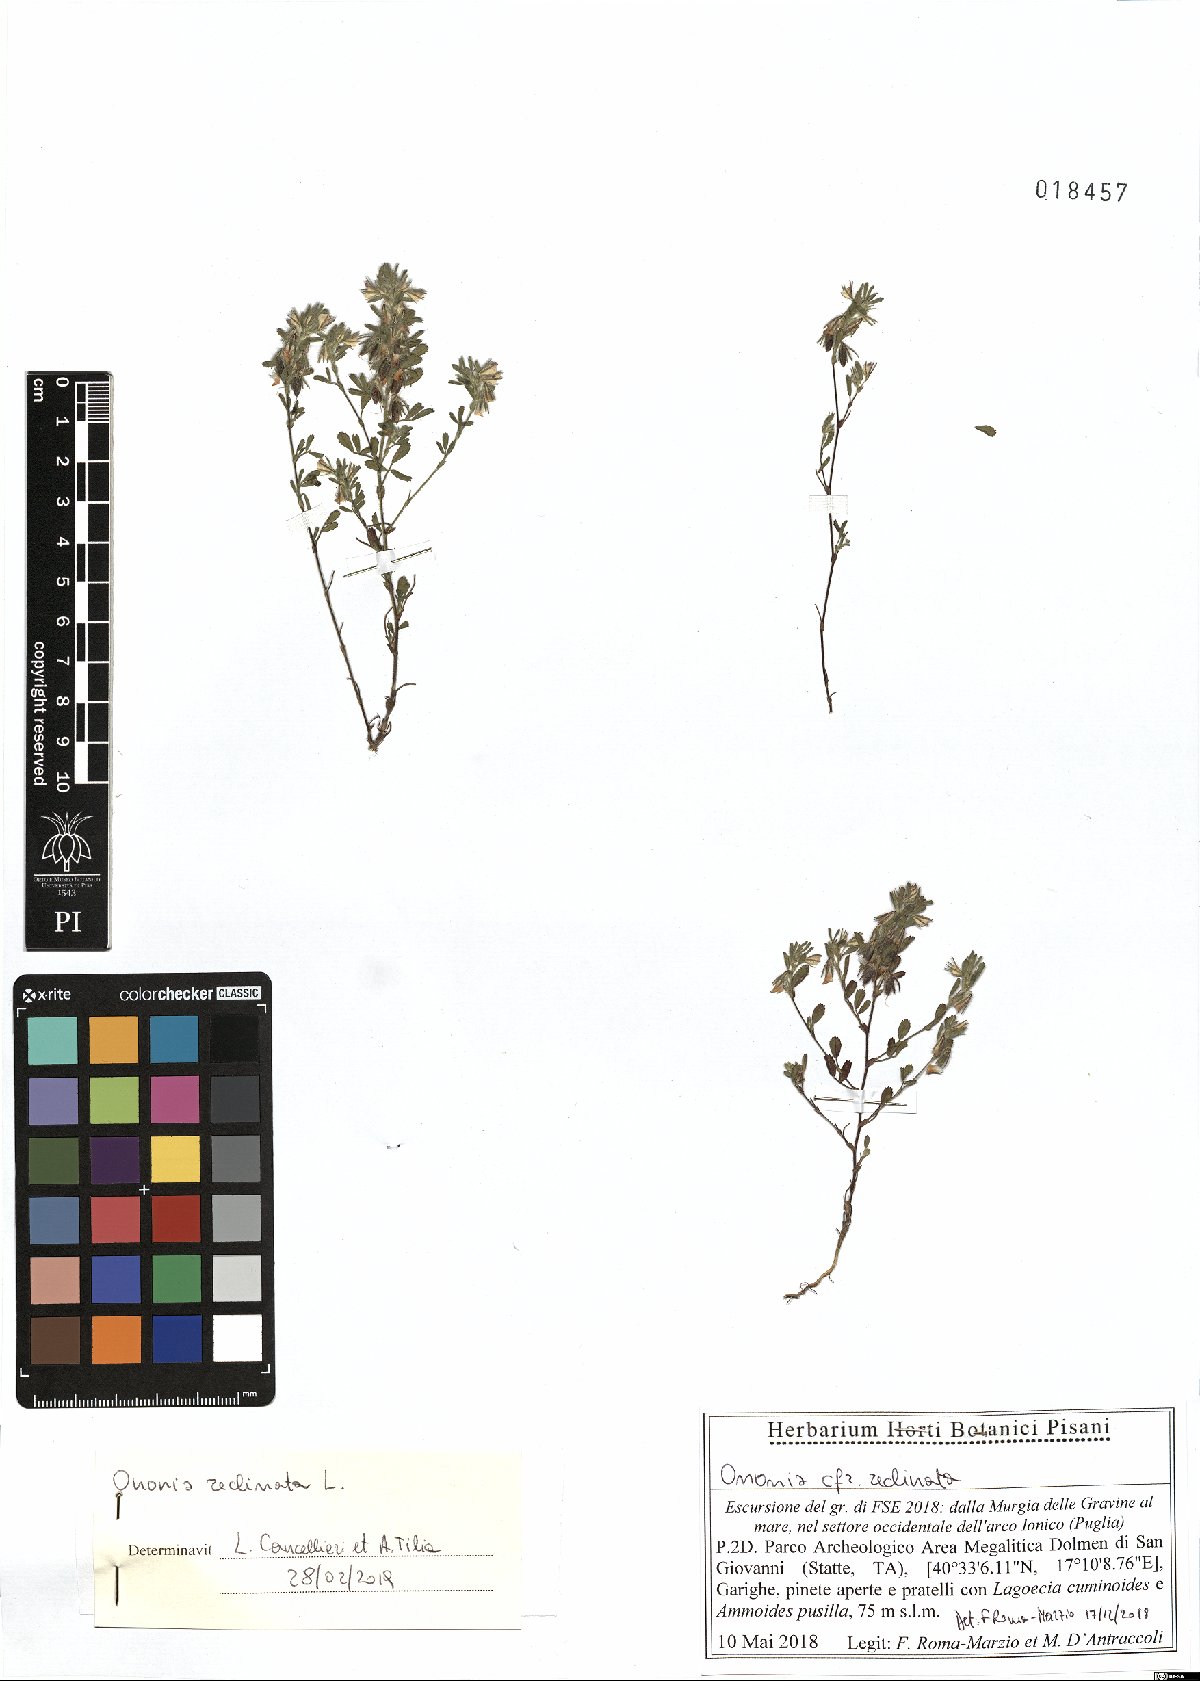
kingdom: Plantae
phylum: Tracheophyta
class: Magnoliopsida
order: Fabales
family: Fabaceae
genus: Ononis
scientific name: Ononis reclinata
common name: Small restharrow
